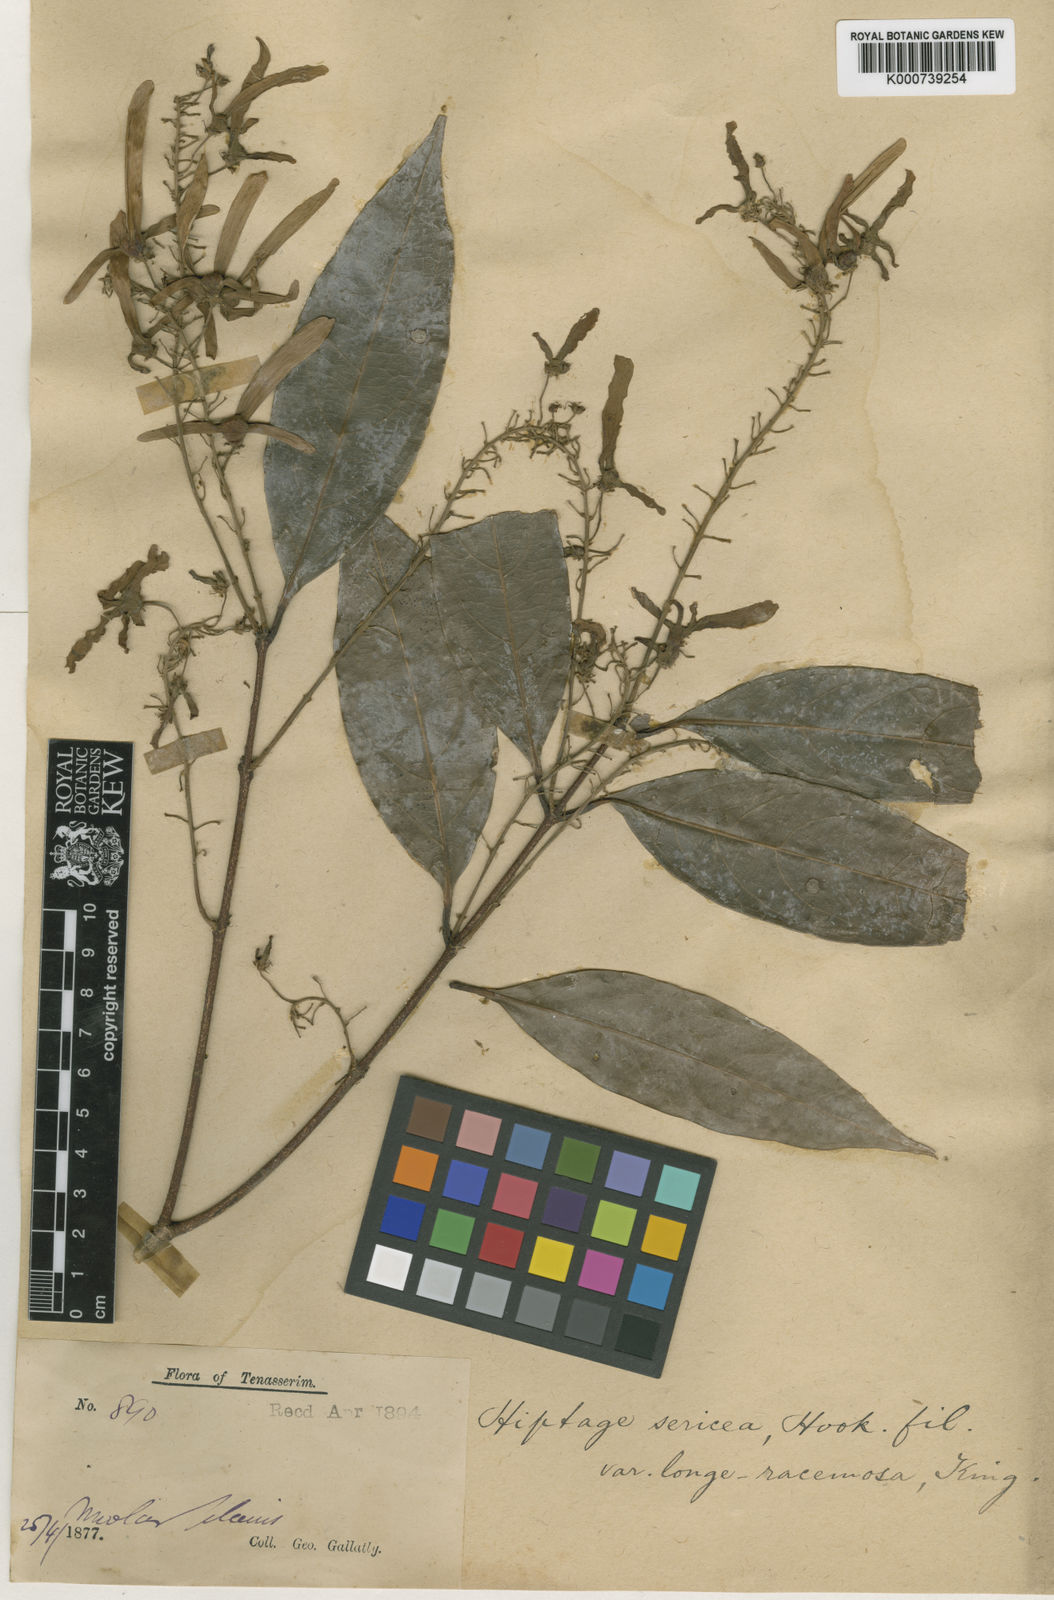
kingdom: Plantae
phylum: Tracheophyta
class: Magnoliopsida
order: Malpighiales
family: Malpighiaceae
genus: Hiptage
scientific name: Hiptage sericea
